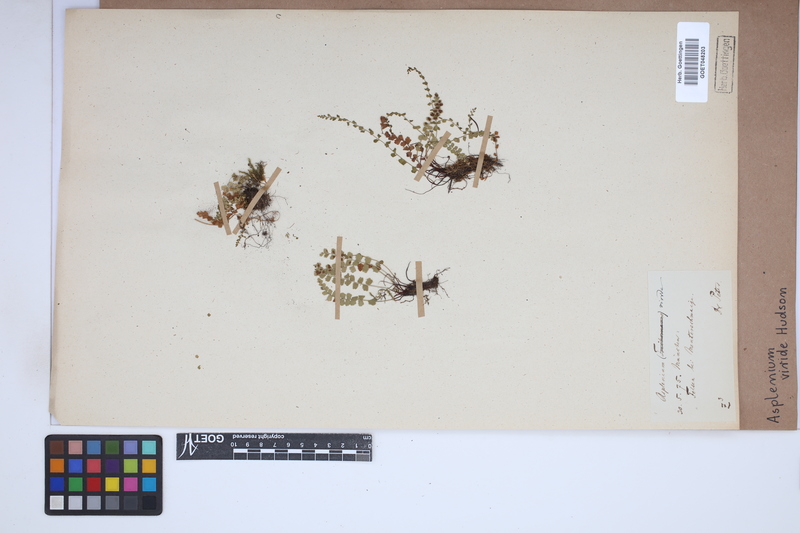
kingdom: Plantae
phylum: Tracheophyta
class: Polypodiopsida
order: Polypodiales
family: Aspleniaceae
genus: Asplenium
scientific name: Asplenium viride
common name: Green spleenwort
